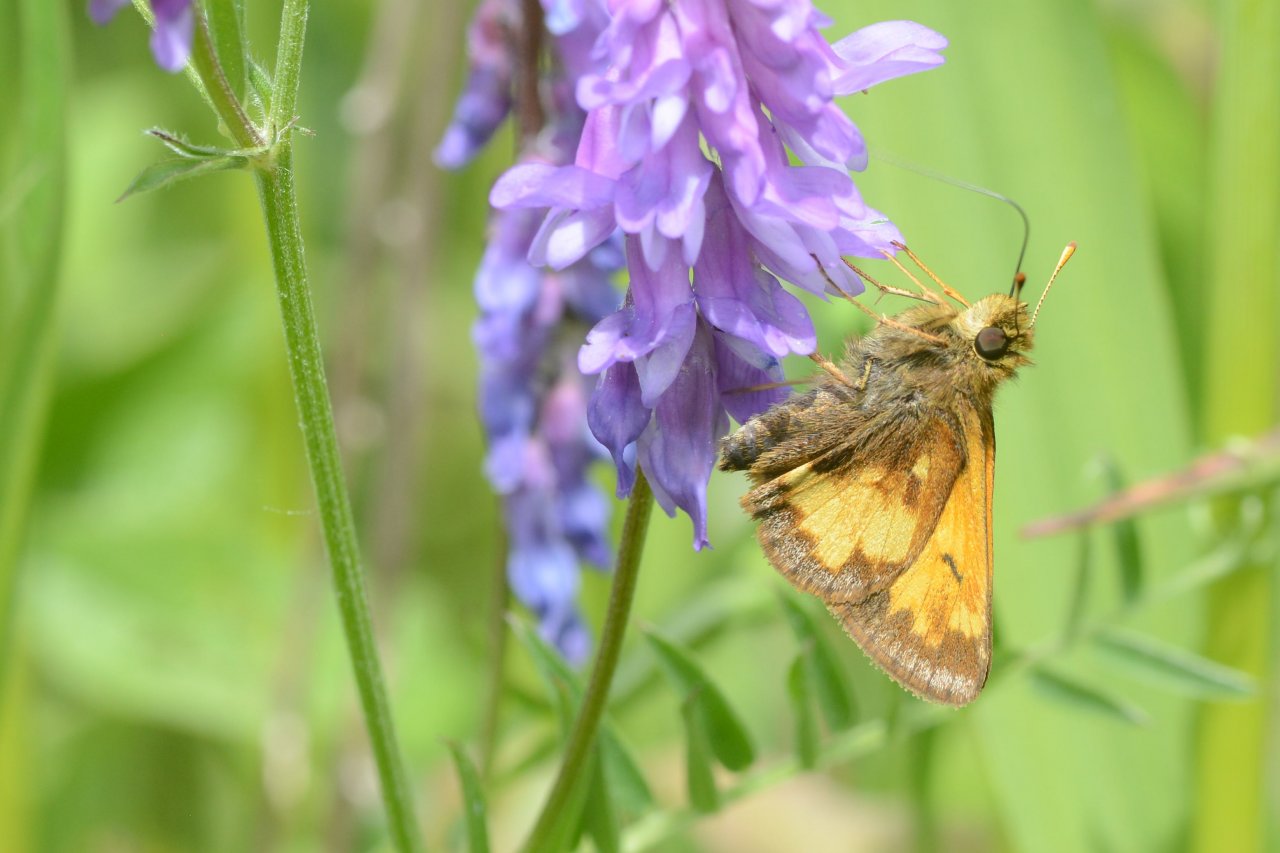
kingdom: Animalia
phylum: Arthropoda
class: Insecta
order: Lepidoptera
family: Hesperiidae
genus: Lon
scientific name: Lon hobomok
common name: Hobomok Skipper
